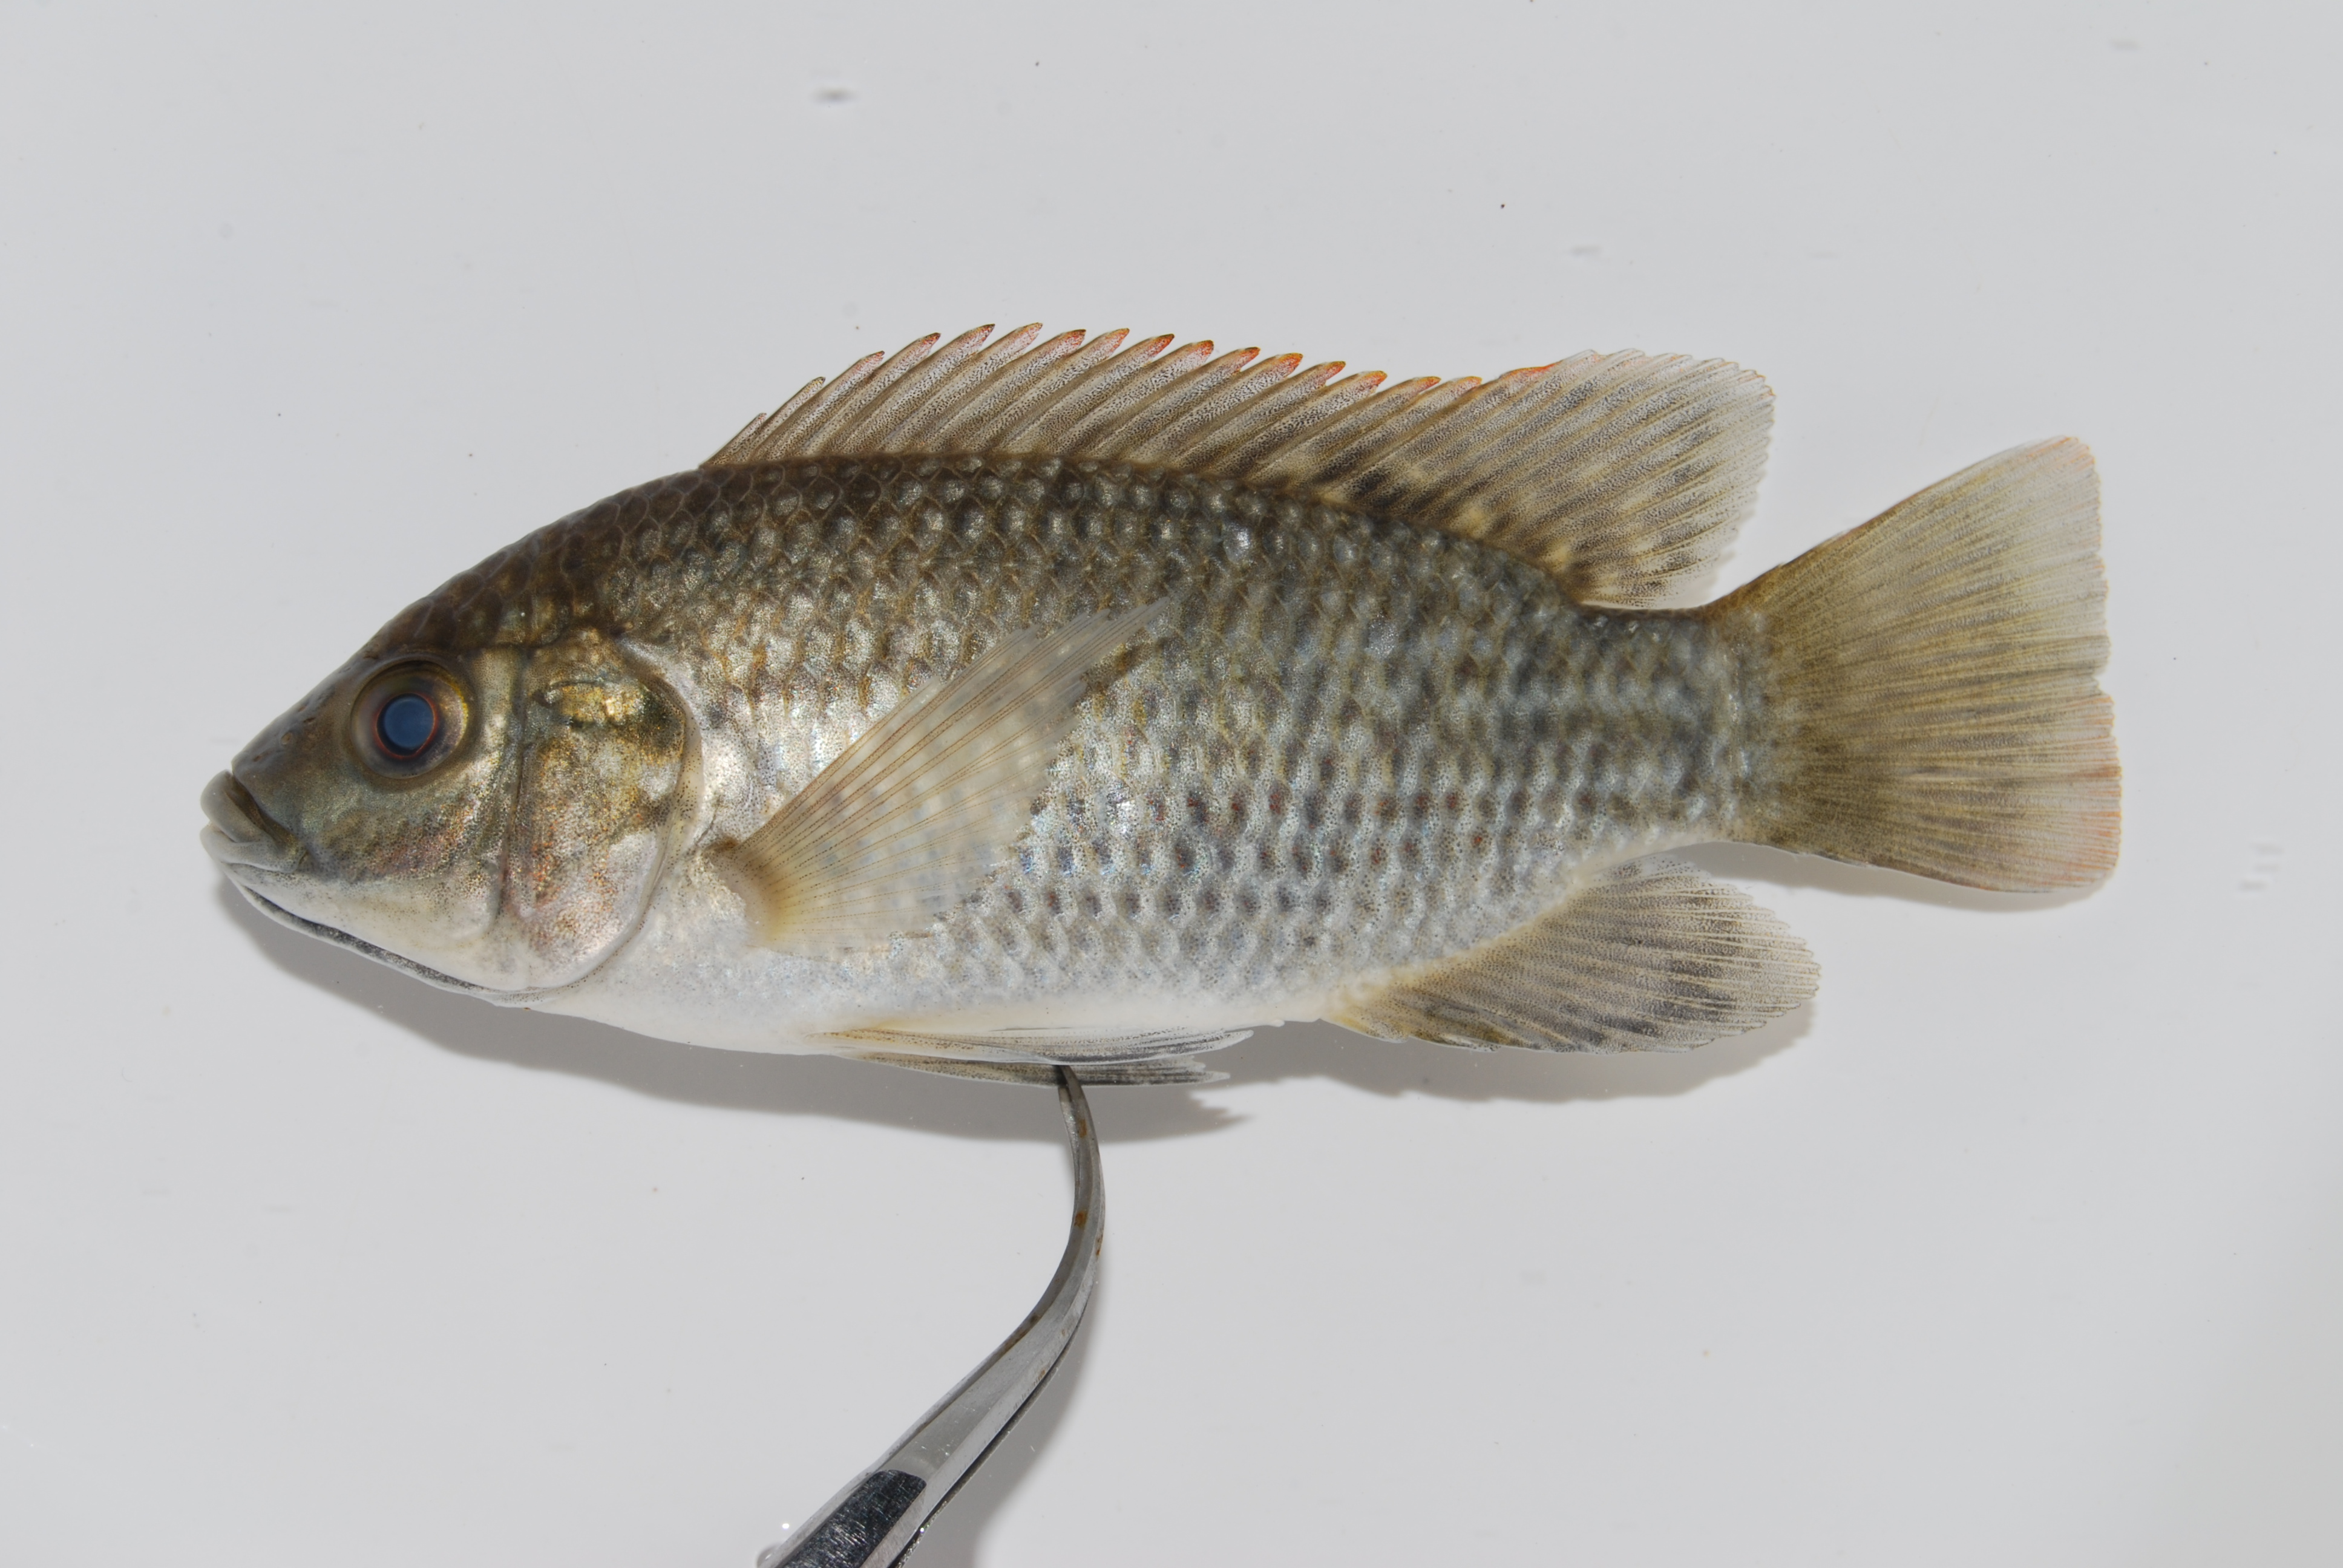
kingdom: Animalia
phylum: Chordata
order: Perciformes
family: Cichlidae
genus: Oreochromis
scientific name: Oreochromis placidus
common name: Black tilapia
